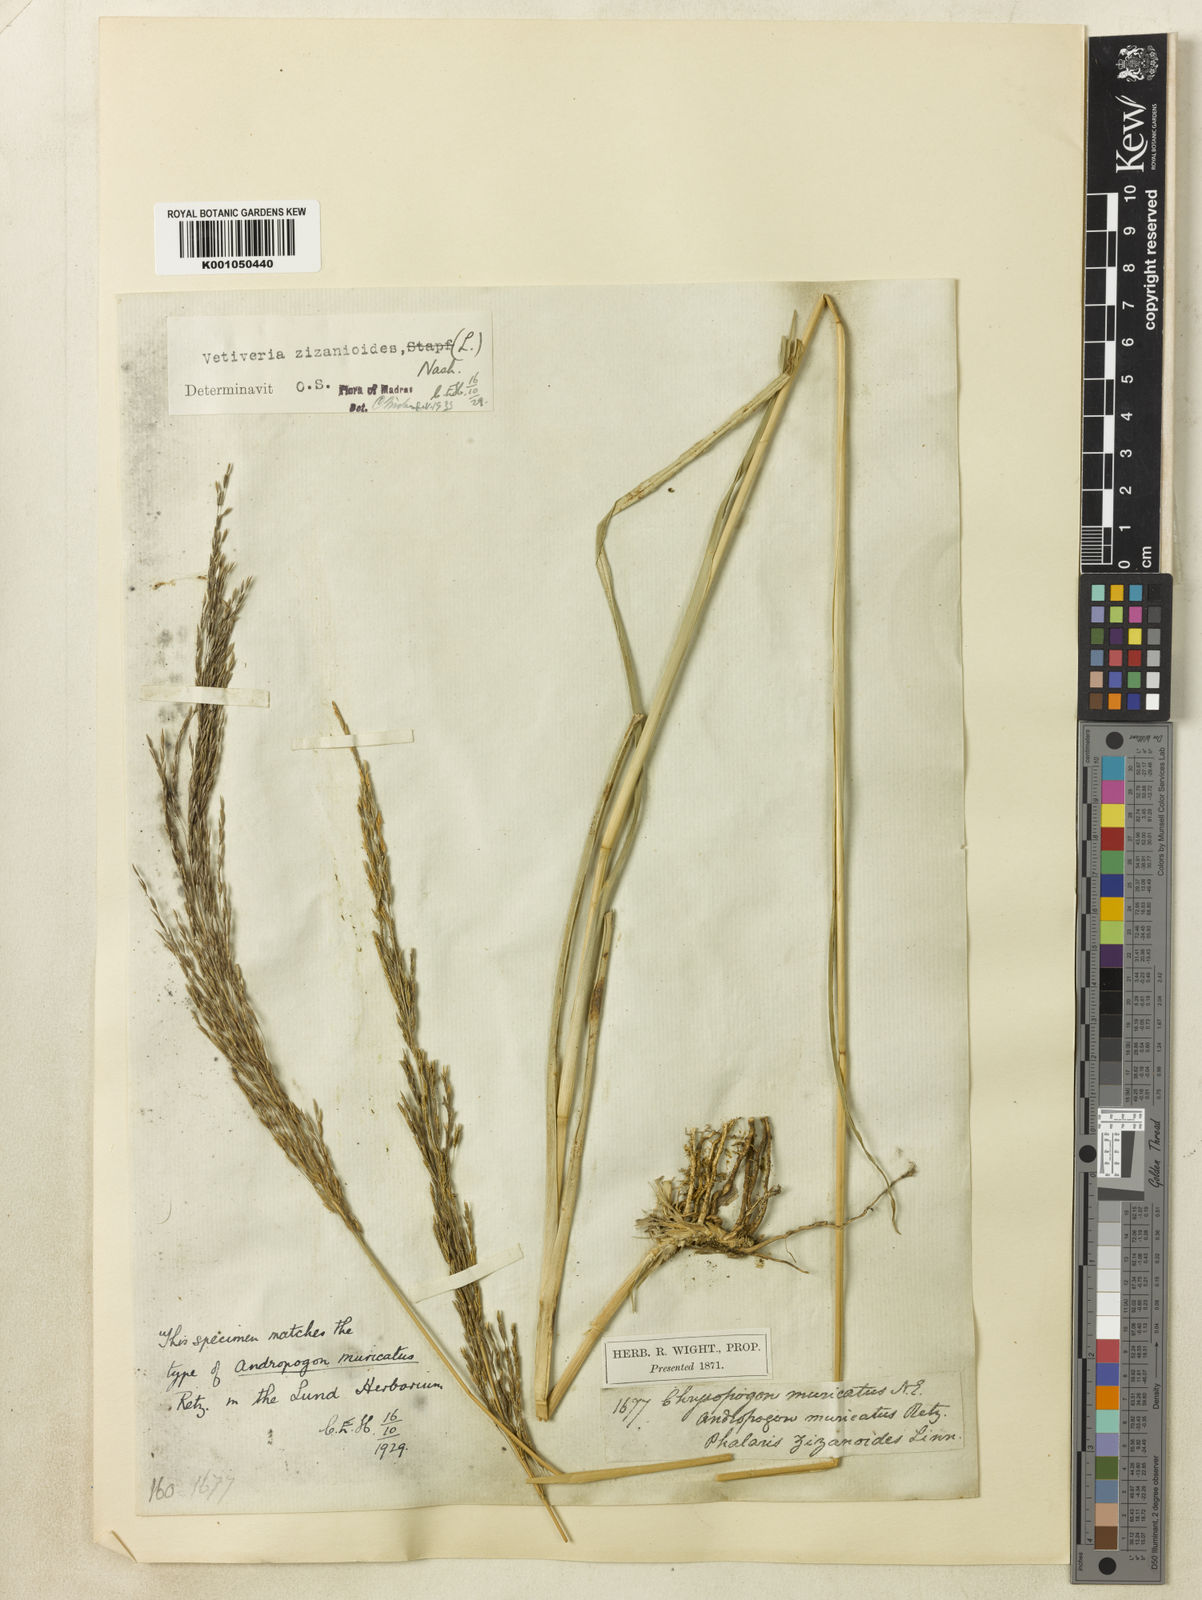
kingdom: Plantae
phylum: Tracheophyta
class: Liliopsida
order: Poales
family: Poaceae
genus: Chrysopogon
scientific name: Chrysopogon zizanioides
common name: False beardgrass
